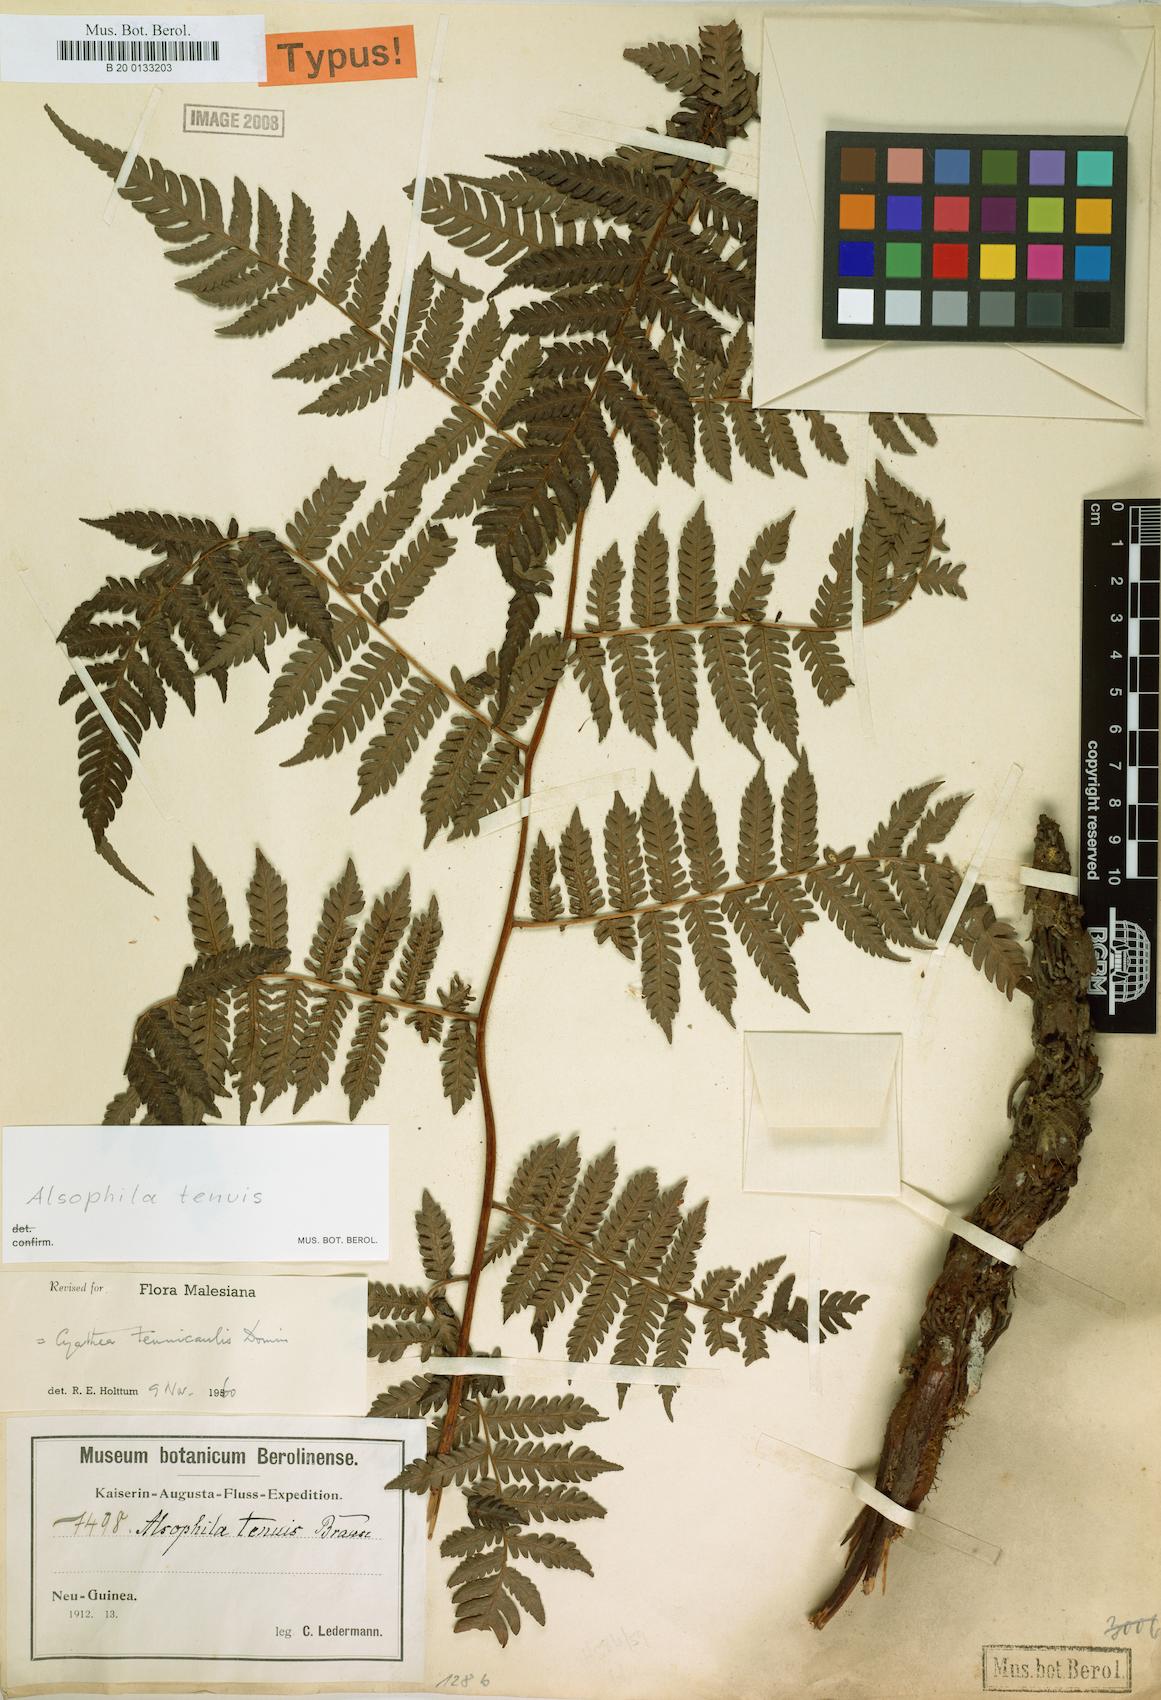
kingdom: Plantae
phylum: Tracheophyta
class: Polypodiopsida
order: Cyatheales
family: Cyatheaceae
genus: Alsophila
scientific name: Alsophila tenuis
